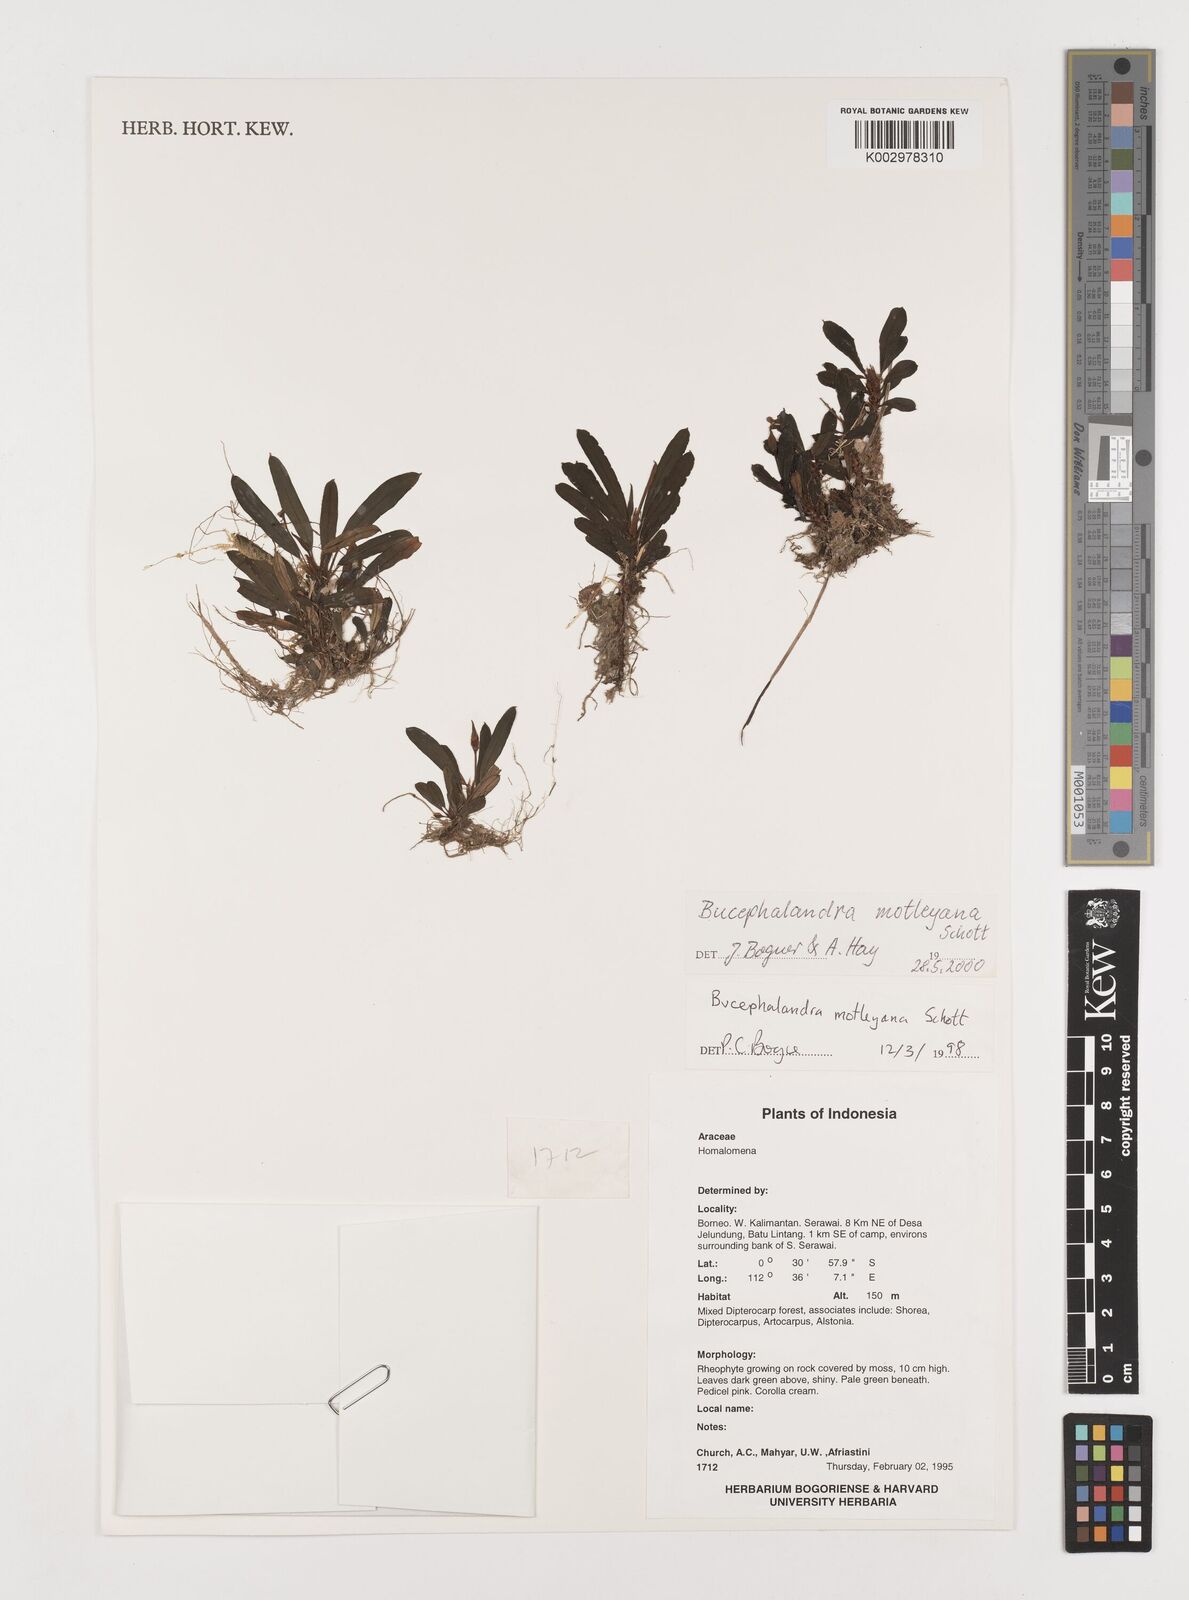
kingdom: Plantae
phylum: Tracheophyta
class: Liliopsida
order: Alismatales
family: Araceae
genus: Bucephalandra
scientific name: Bucephalandra motleyana
